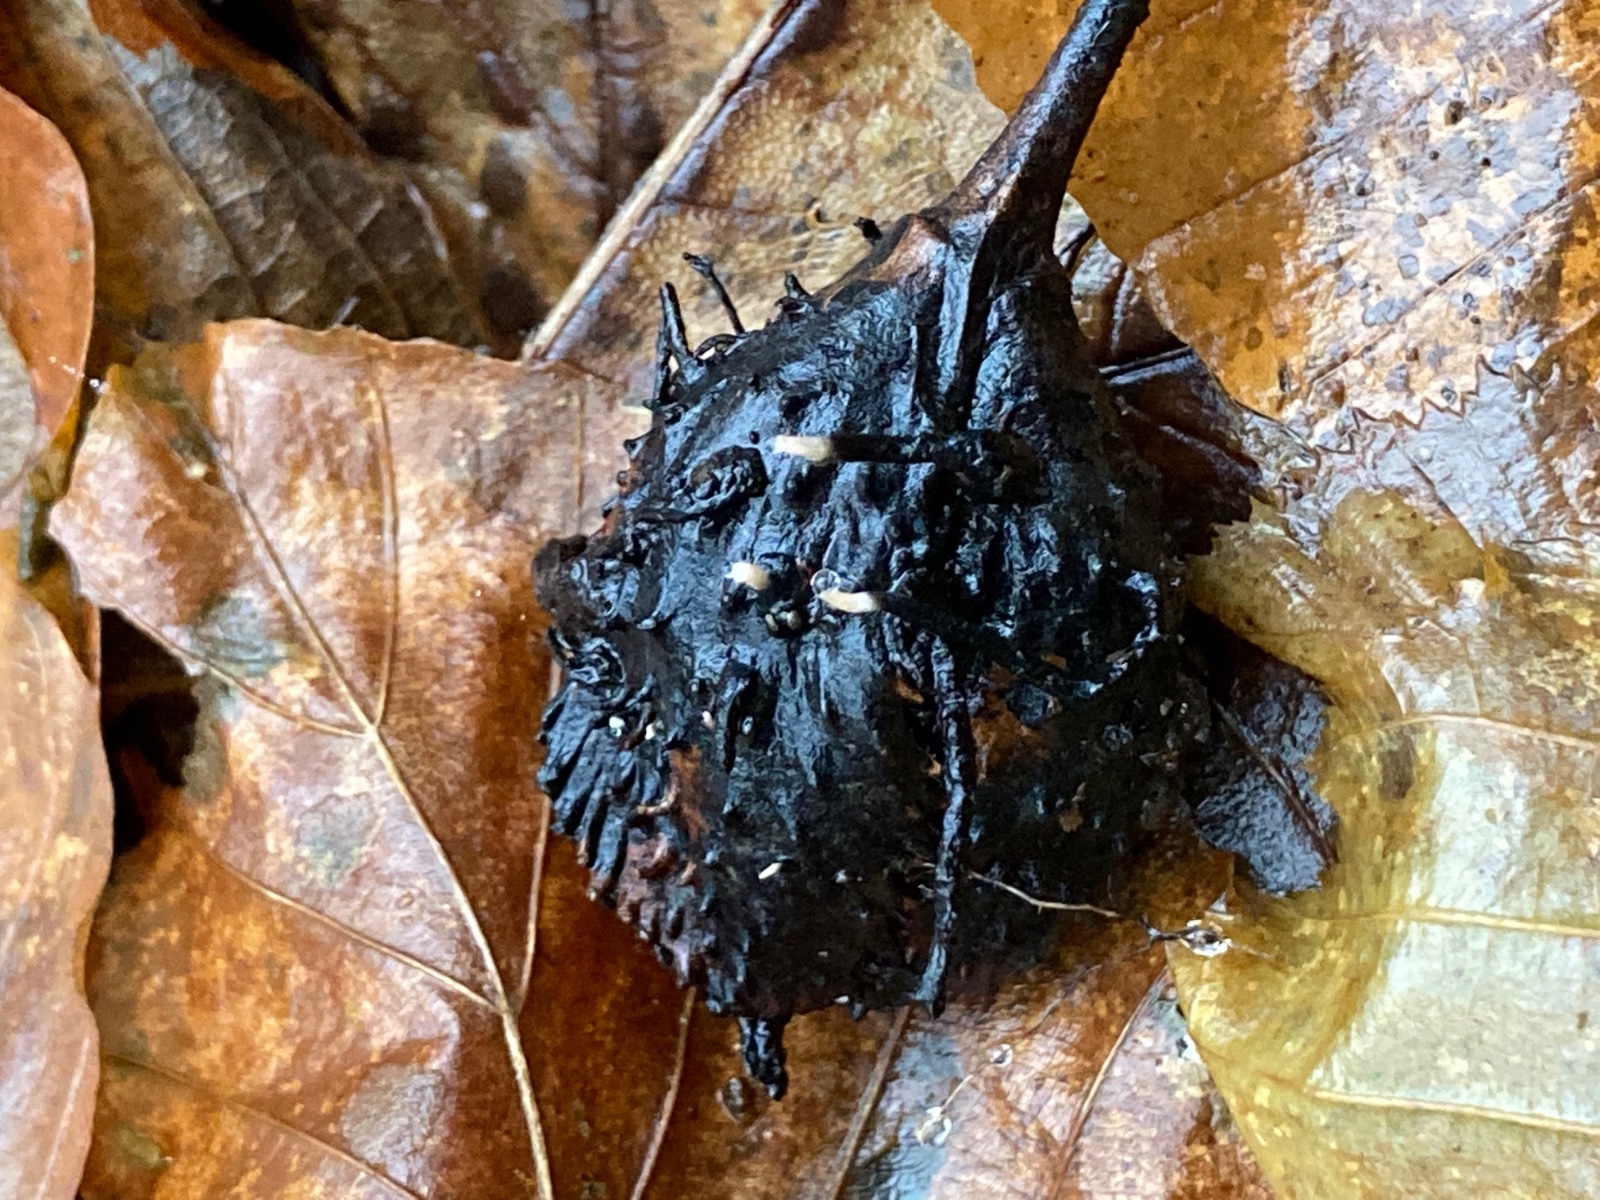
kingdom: Fungi
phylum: Ascomycota
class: Sordariomycetes
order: Xylariales
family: Xylariaceae
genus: Xylaria
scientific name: Xylaria carpophila
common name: bogskål-stødsvamp
